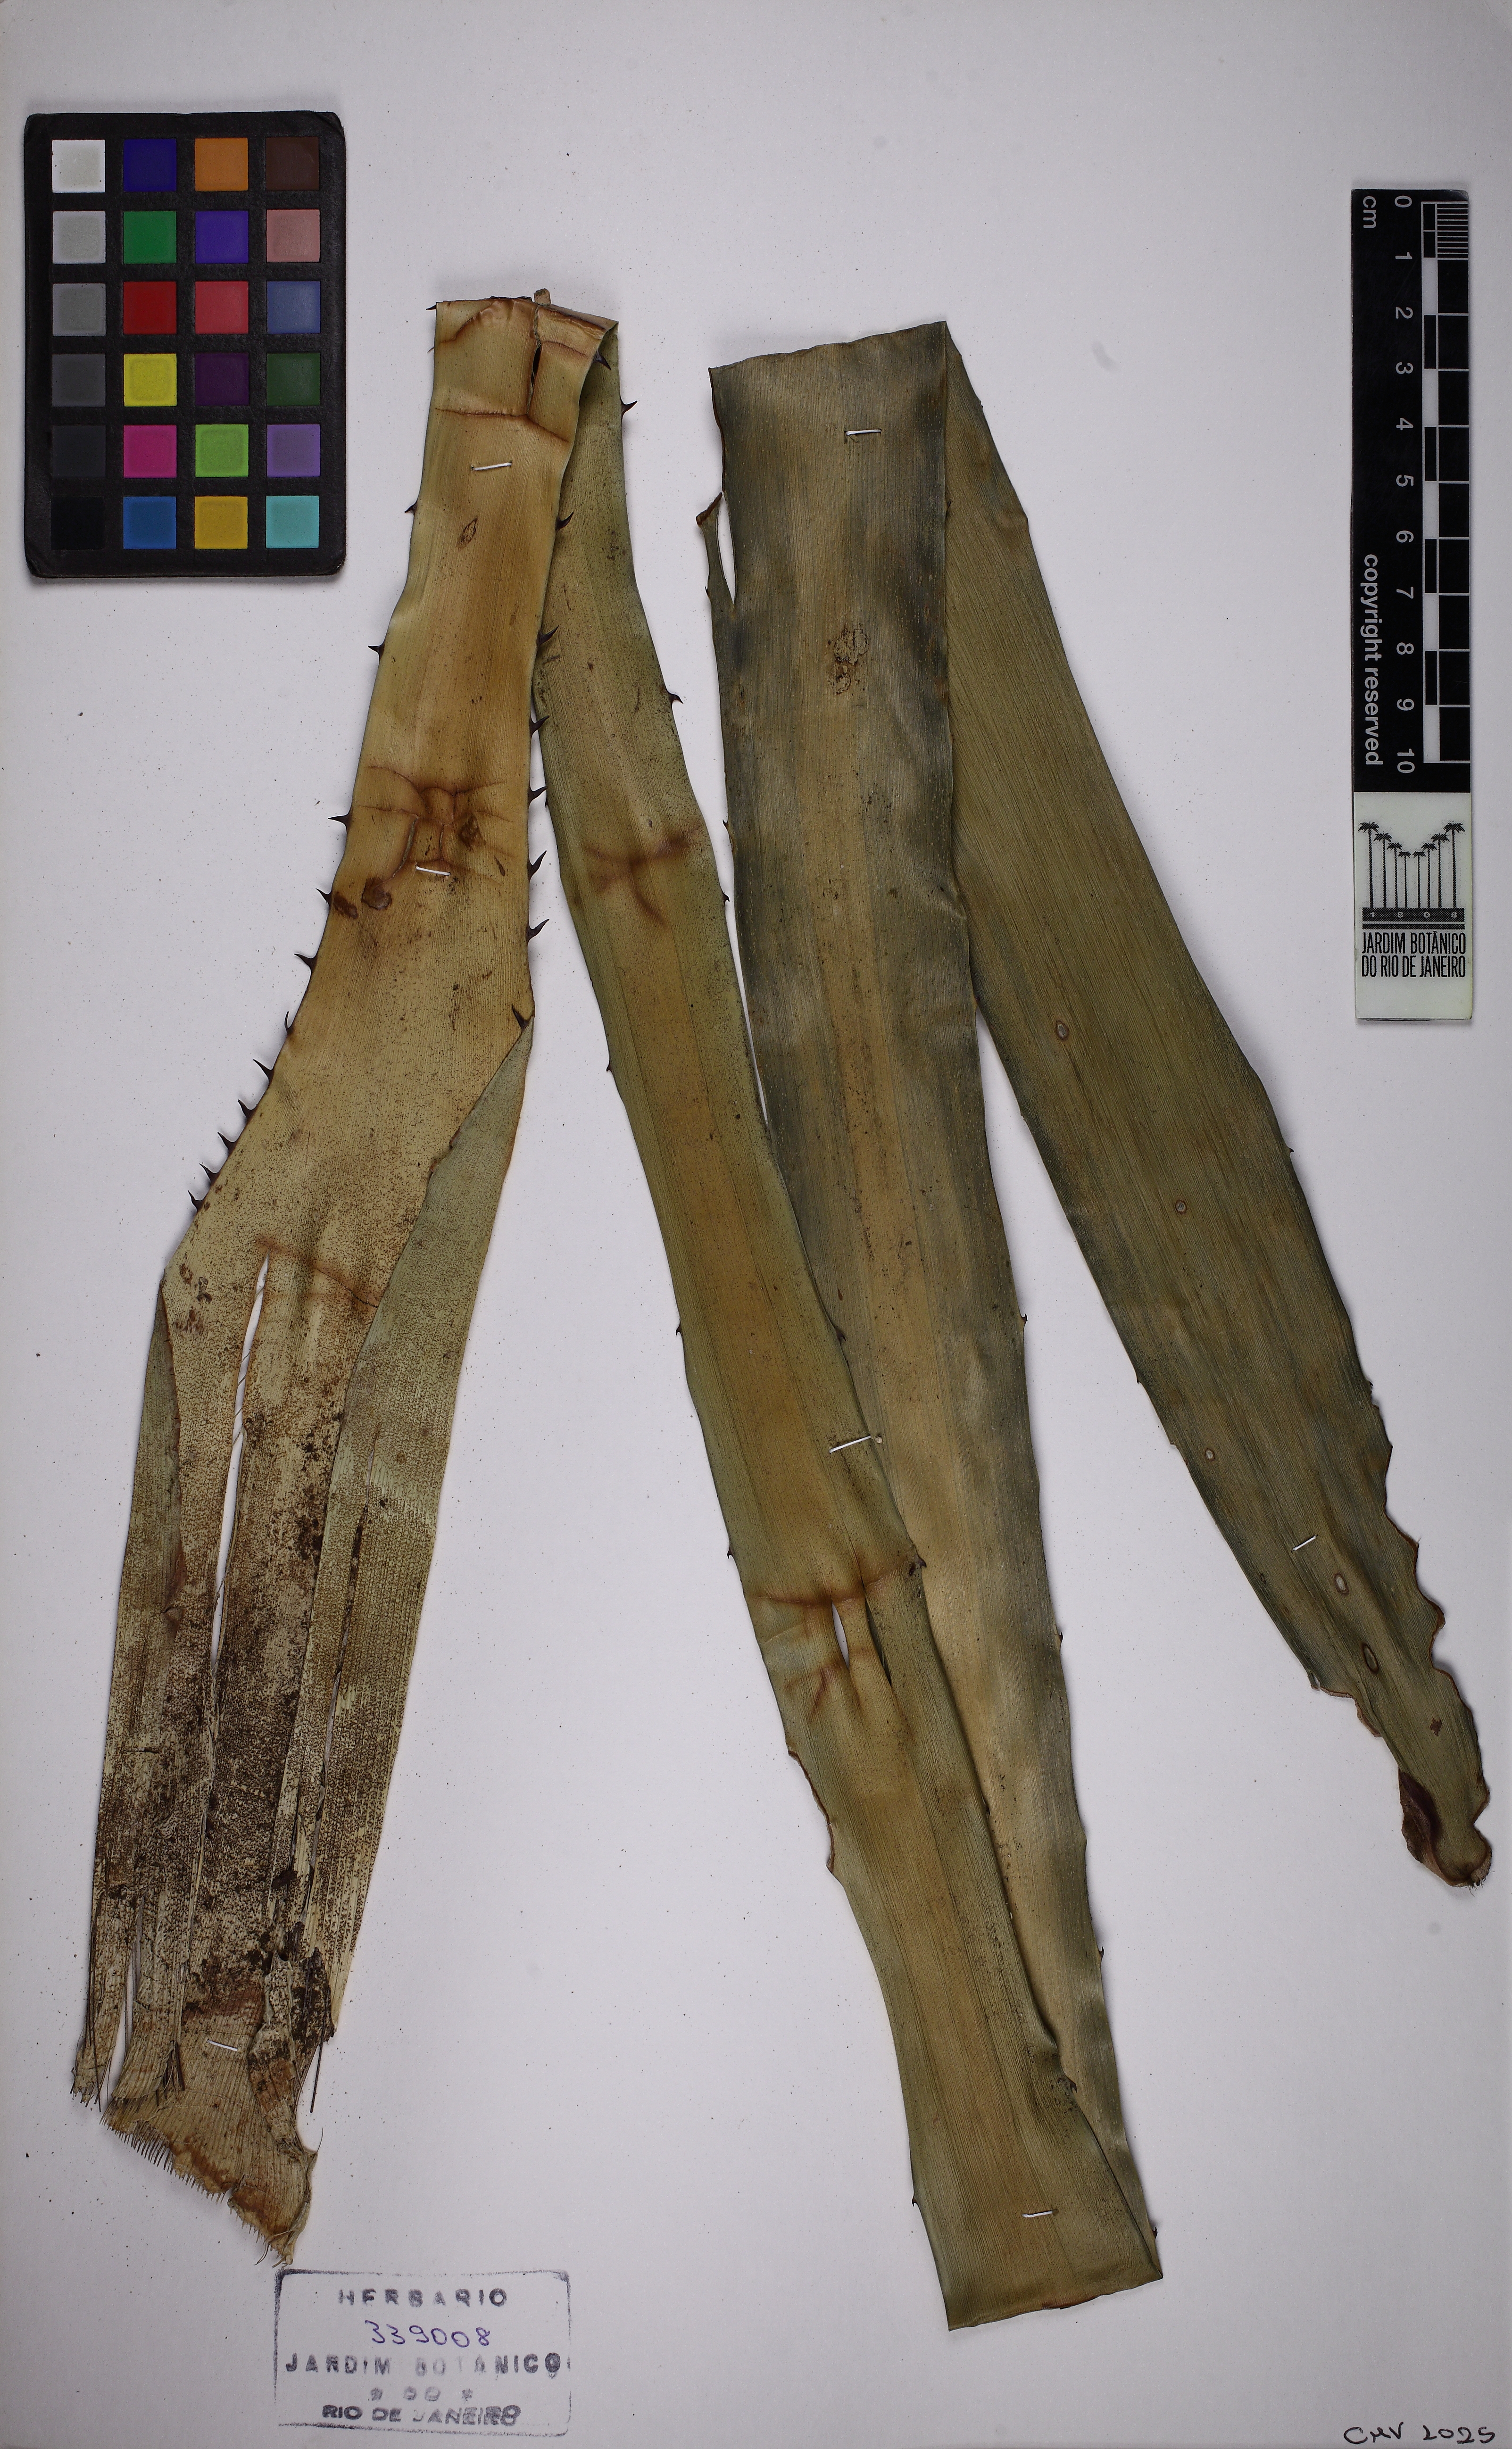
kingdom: Plantae
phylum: Tracheophyta
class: Liliopsida
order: Poales
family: Bromeliaceae
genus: Wittrockia
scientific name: Wittrockia gigantea
